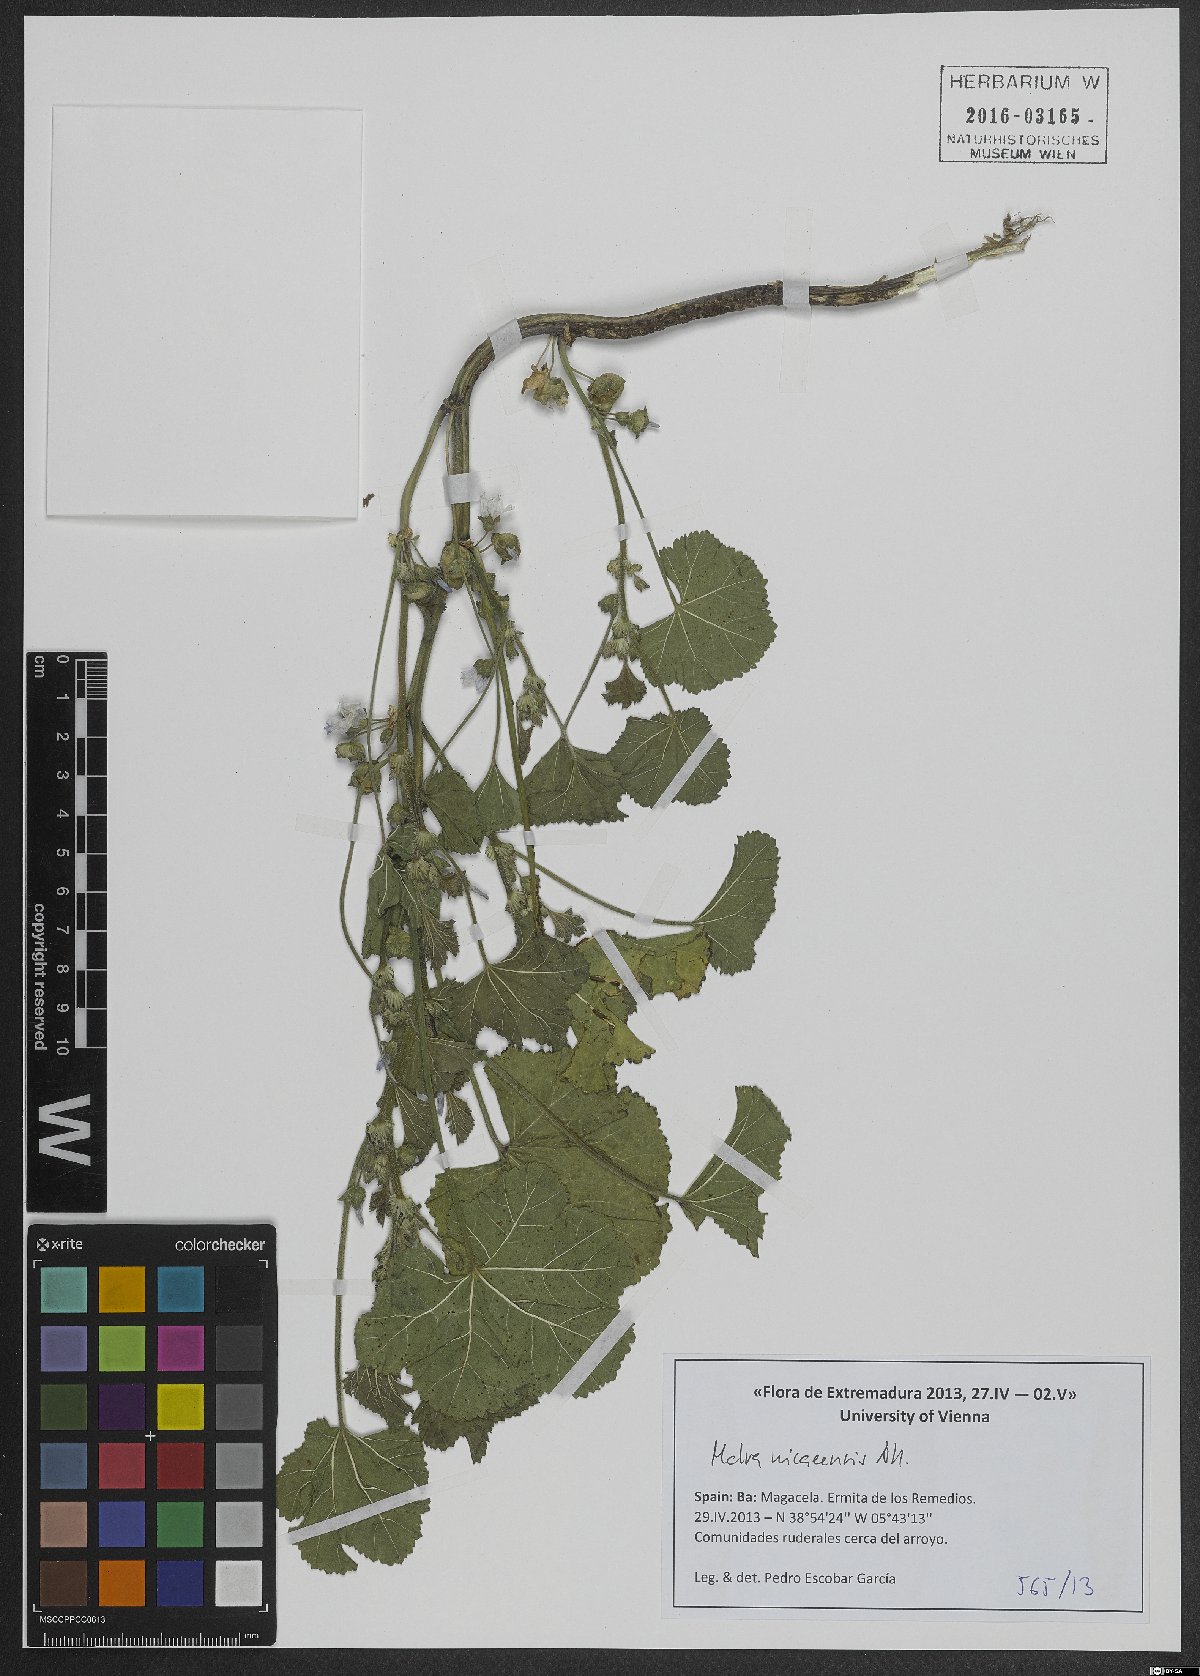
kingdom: Plantae
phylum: Tracheophyta
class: Magnoliopsida
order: Malvales
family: Malvaceae
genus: Malva
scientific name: Malva nicaeensis
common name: French mallow
